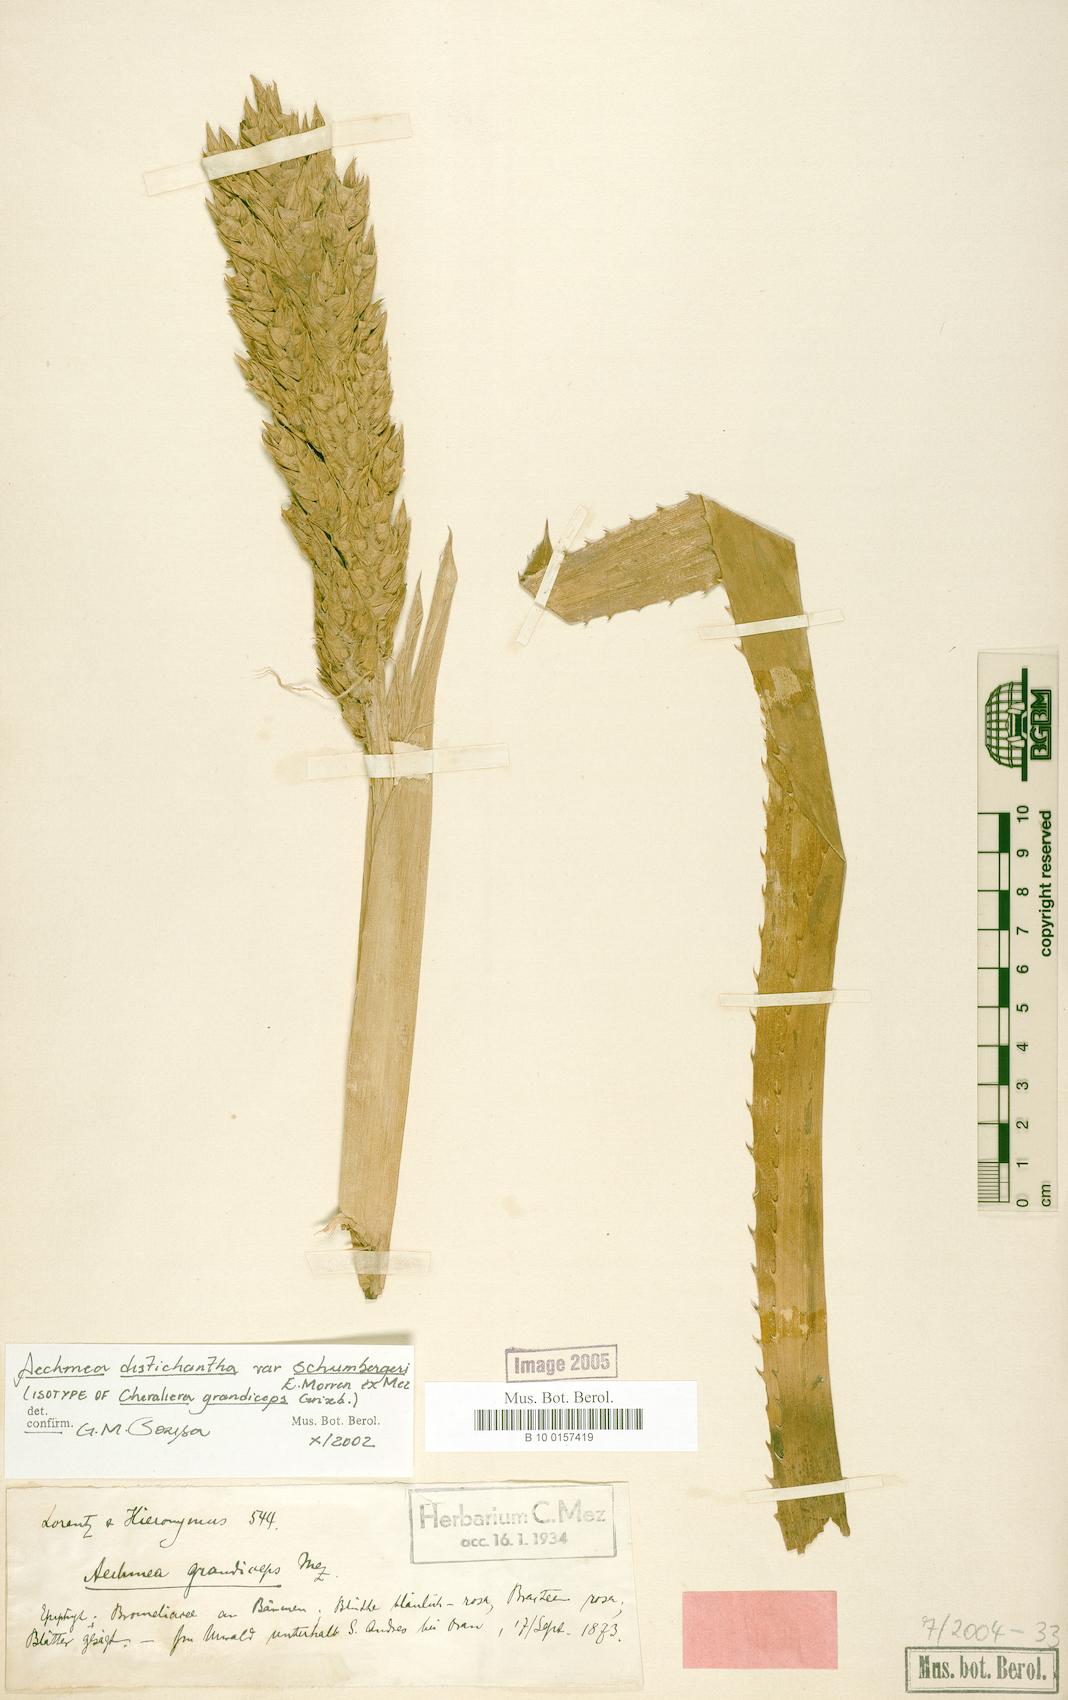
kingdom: Plantae
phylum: Tracheophyta
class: Liliopsida
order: Poales
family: Bromeliaceae
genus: Aechmea
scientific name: Aechmea distichantha
